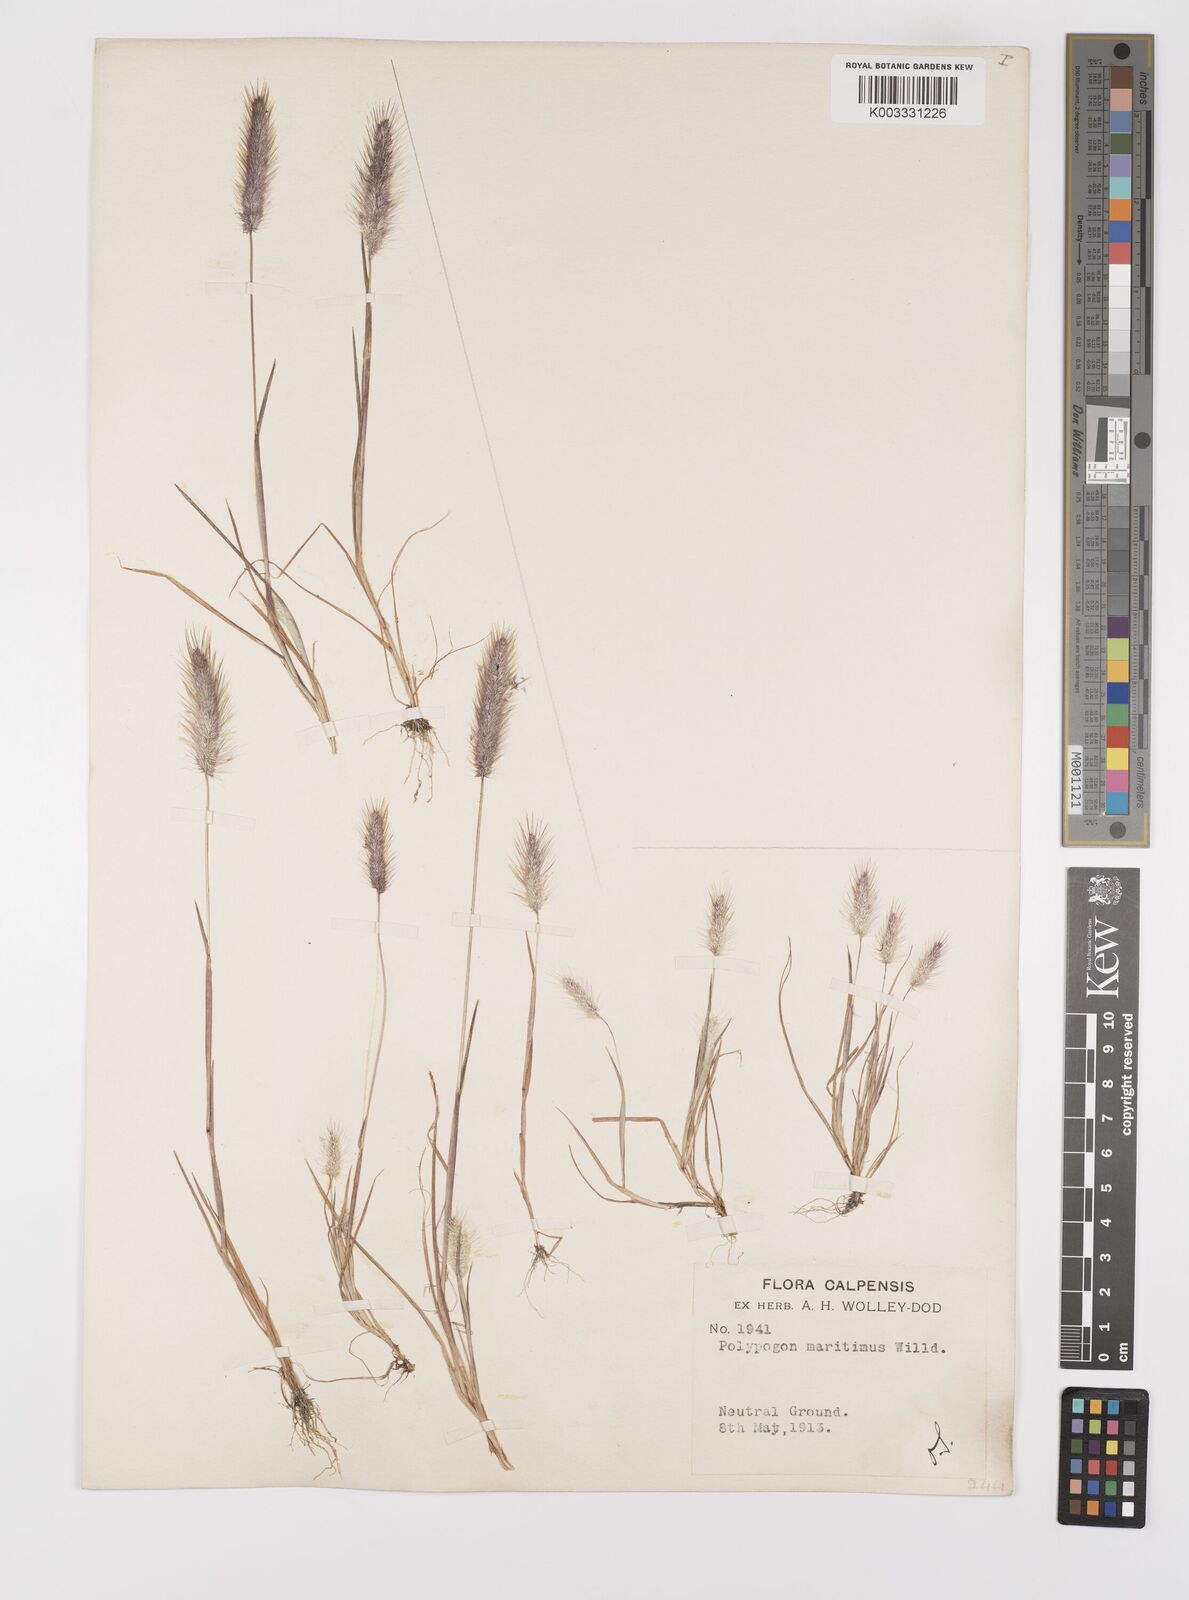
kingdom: Plantae
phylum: Tracheophyta
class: Liliopsida
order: Poales
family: Poaceae
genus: Polypogon
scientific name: Polypogon maritimus
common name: Mediterranean rabbitsfoot grass
